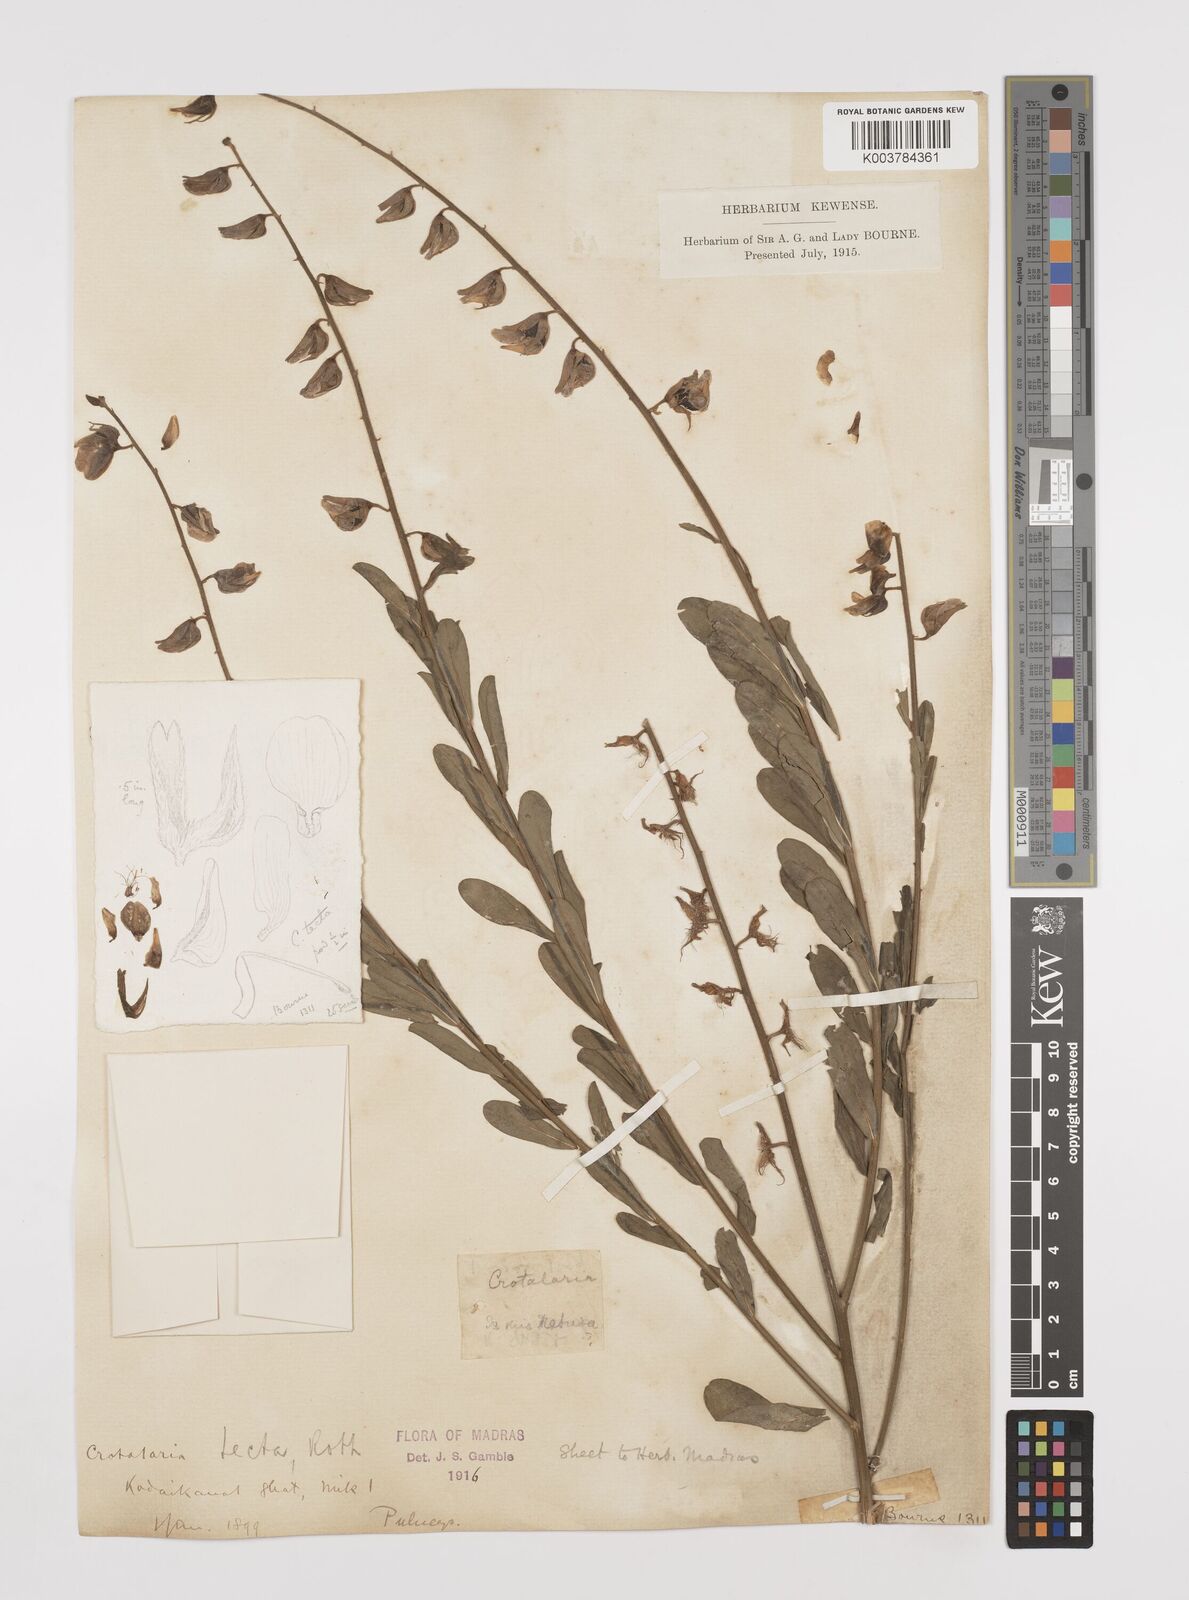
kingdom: Plantae
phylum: Tracheophyta
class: Magnoliopsida
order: Fabales
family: Fabaceae
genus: Crotalaria
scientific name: Crotalaria linifolia
